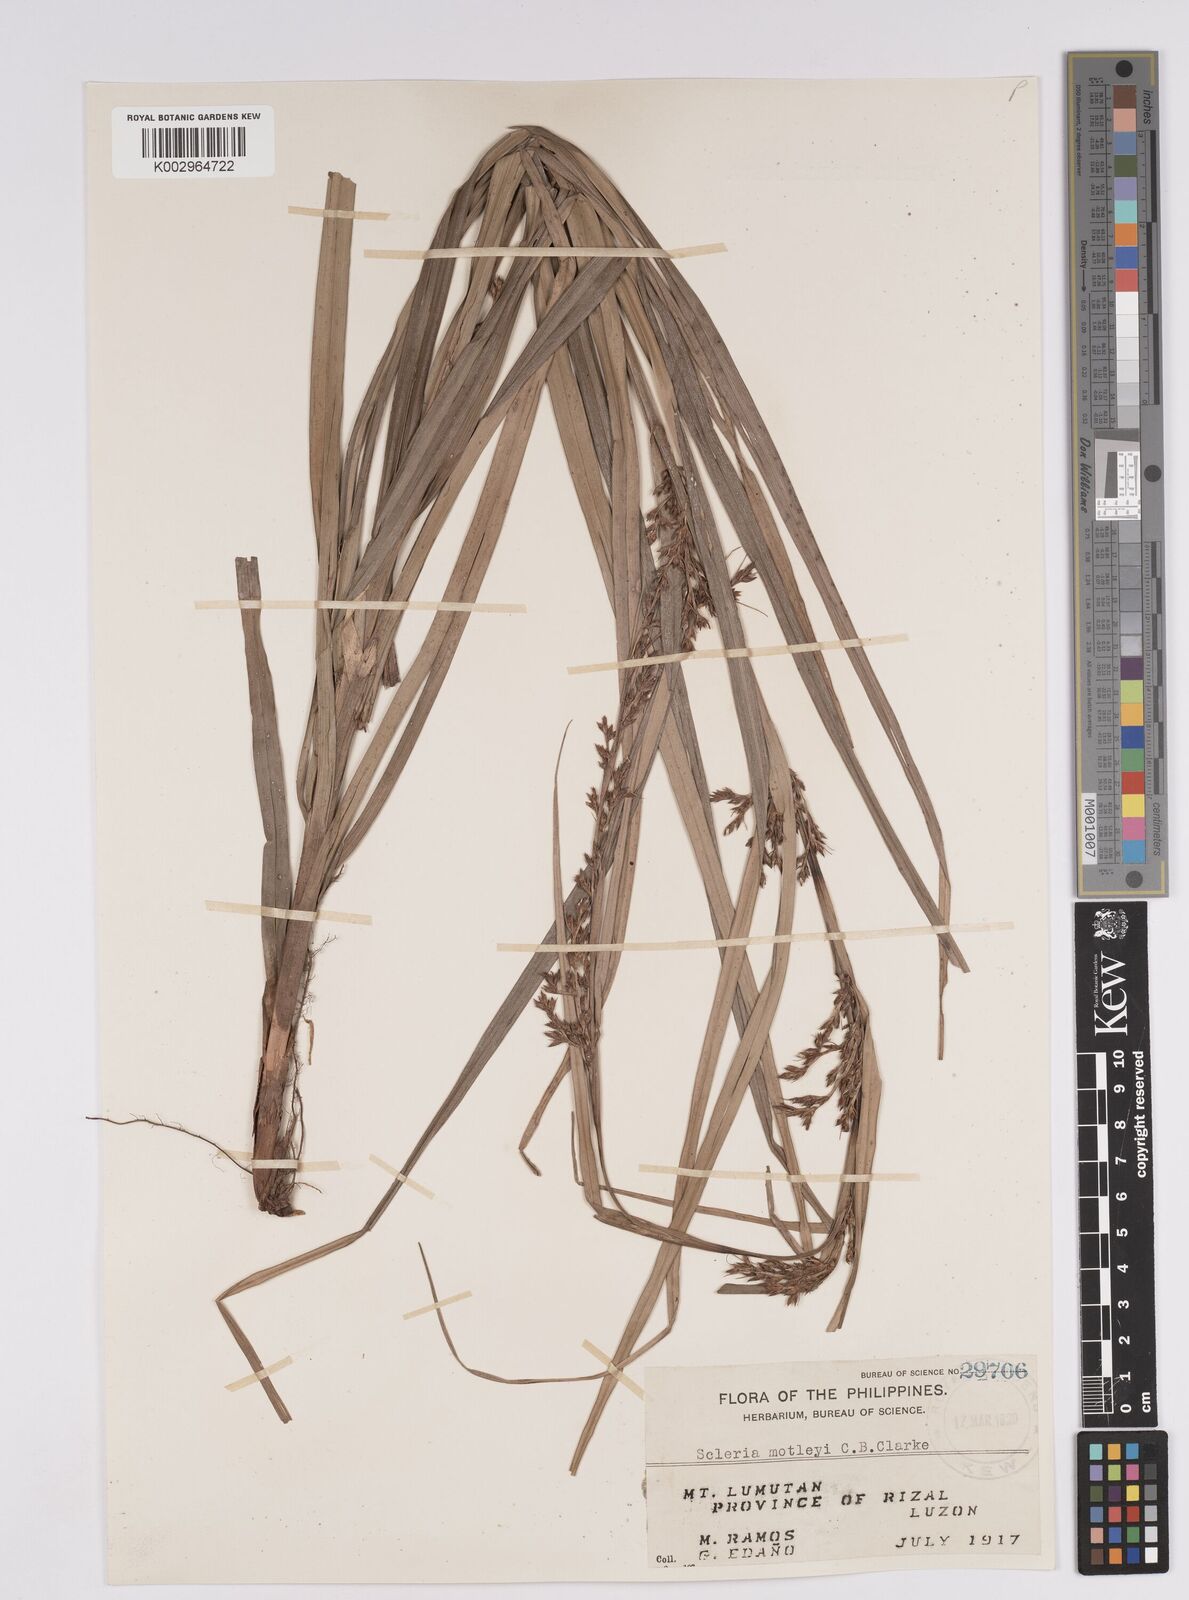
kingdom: Plantae
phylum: Tracheophyta
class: Liliopsida
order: Poales
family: Cyperaceae
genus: Scleria
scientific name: Scleria motleyi
